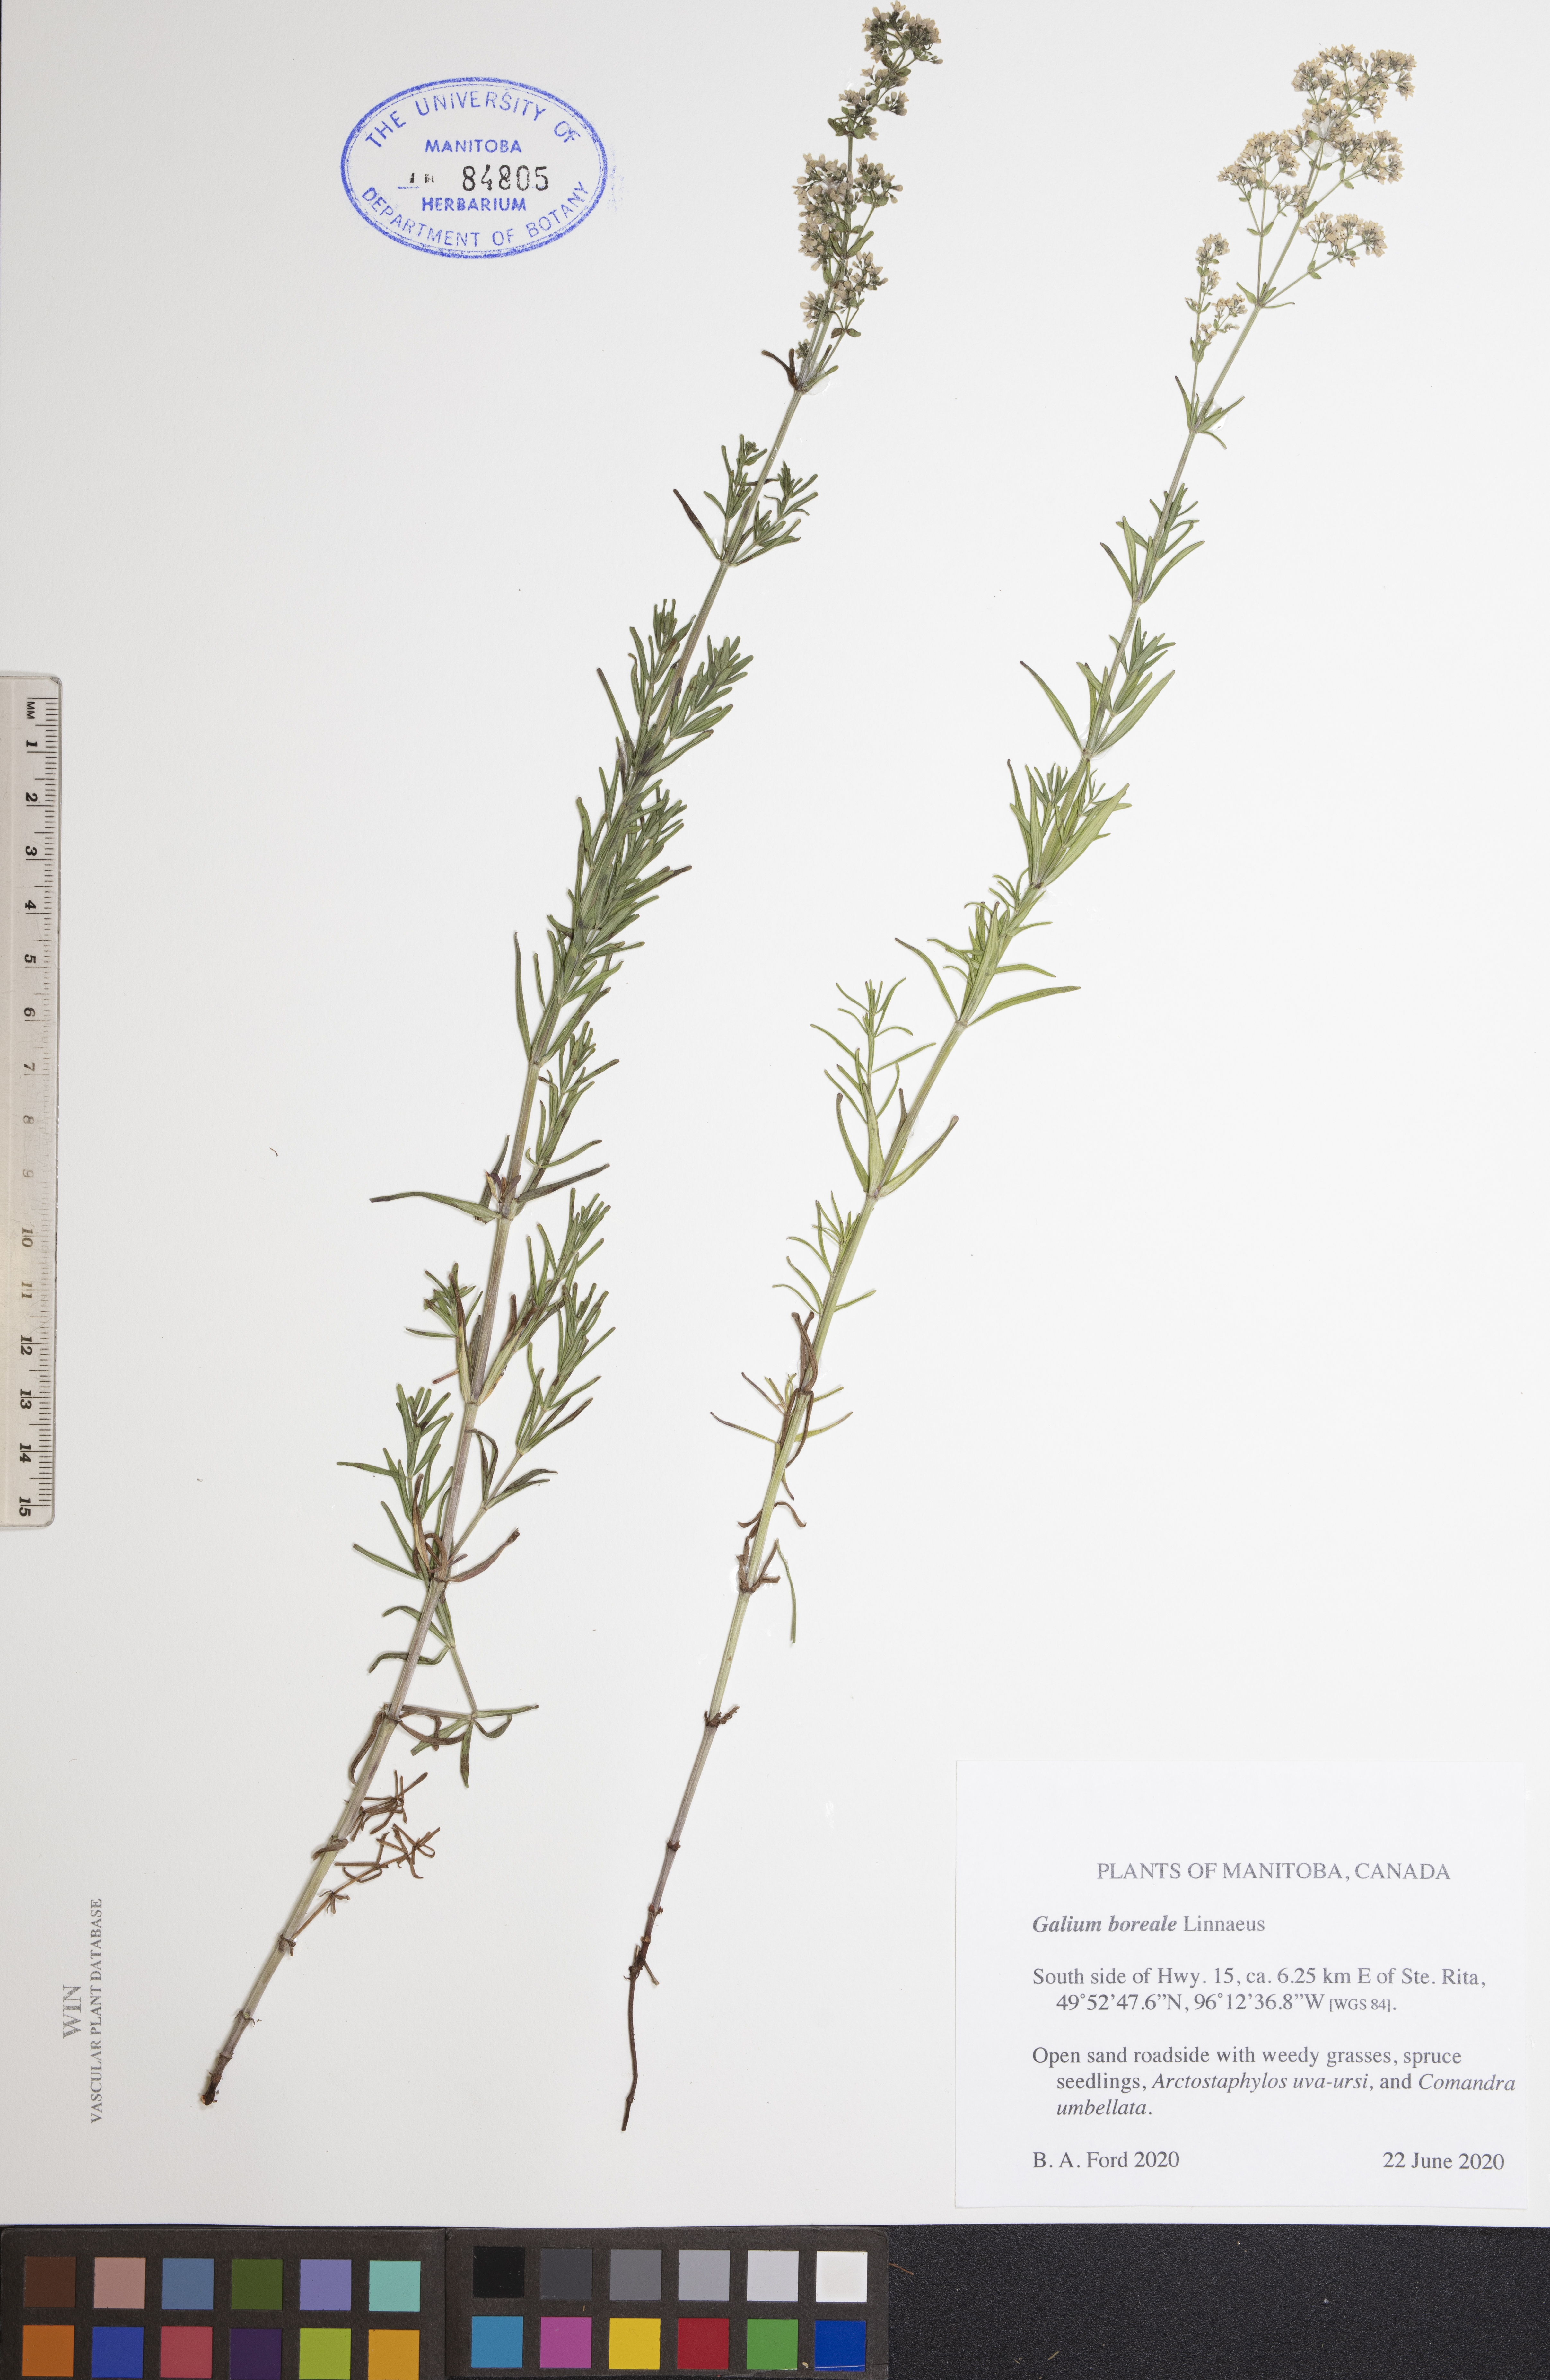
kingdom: Plantae
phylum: Tracheophyta
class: Magnoliopsida
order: Gentianales
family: Rubiaceae
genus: Galium
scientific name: Galium boreale
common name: Northern bedstraw
